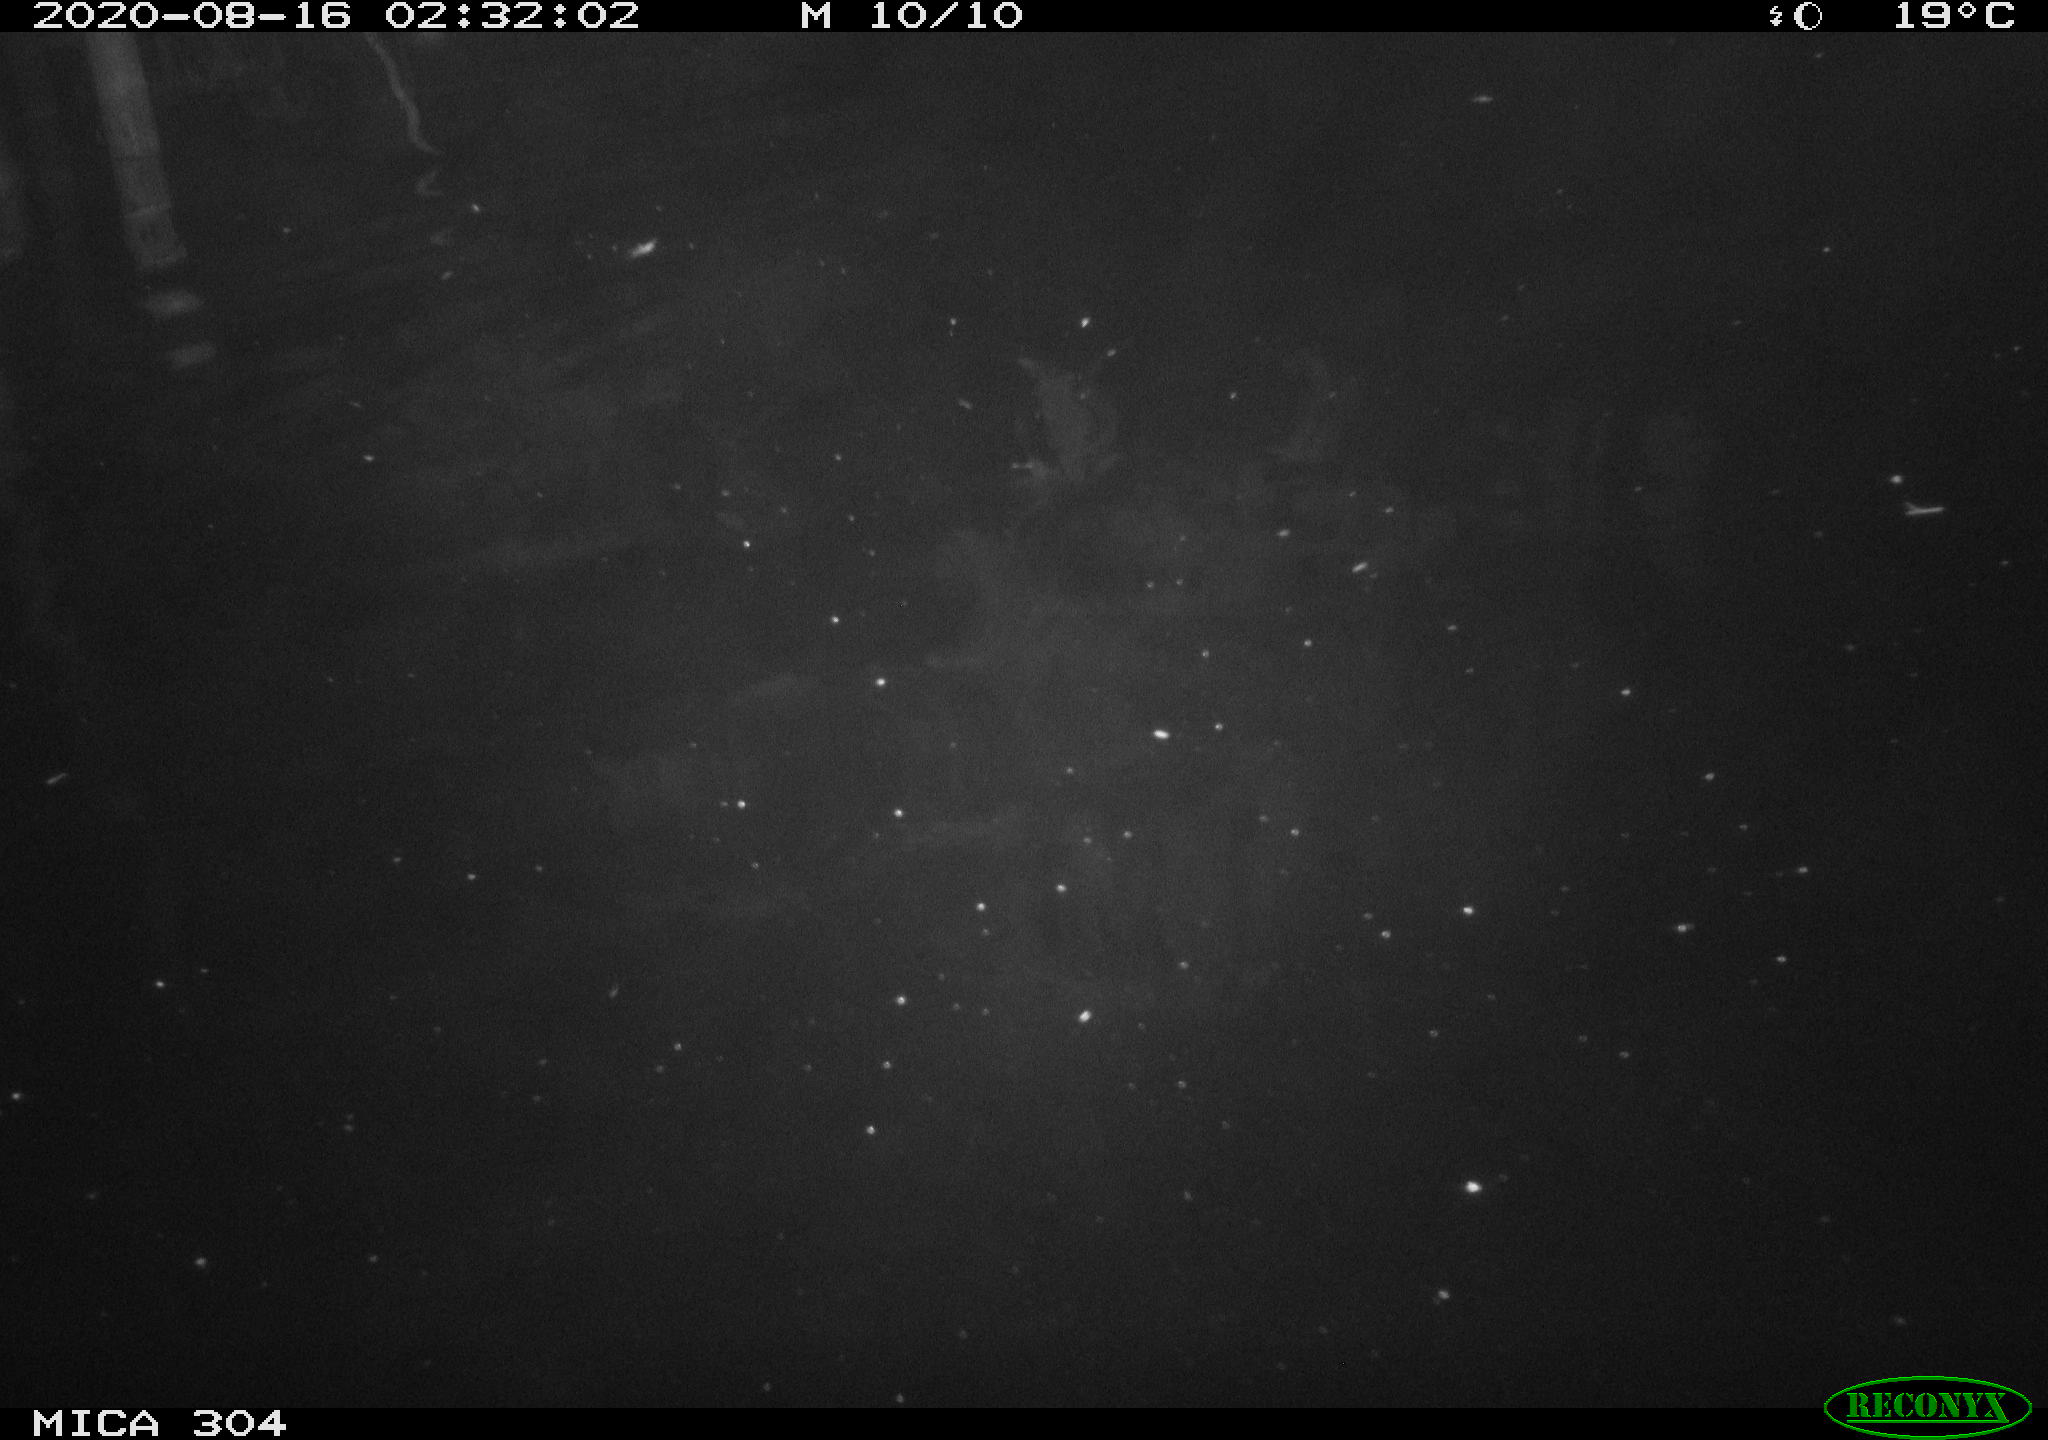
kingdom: Animalia
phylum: Chordata
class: Mammalia
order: Rodentia
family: Cricetidae
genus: Ondatra
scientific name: Ondatra zibethicus
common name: Muskrat
